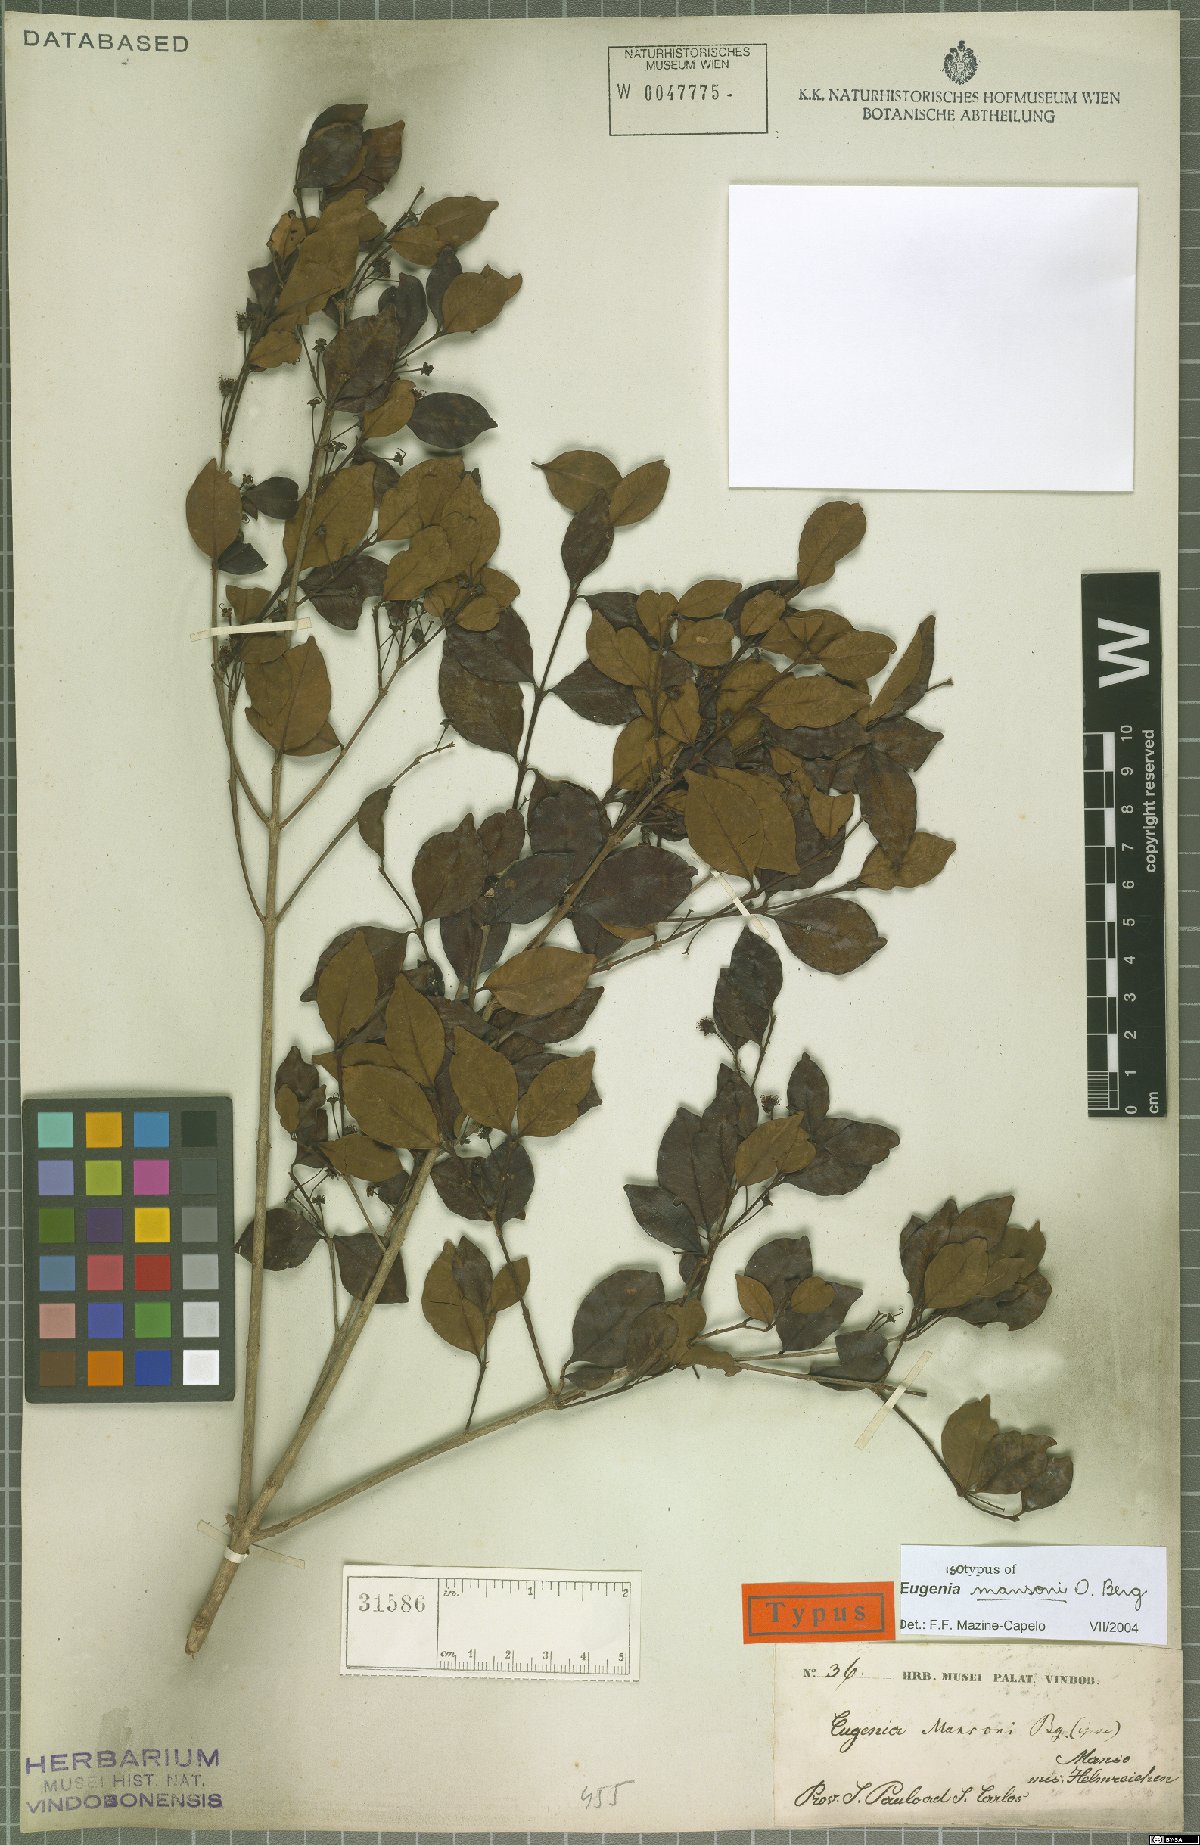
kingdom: Plantae
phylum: Tracheophyta
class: Magnoliopsida
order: Myrtales
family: Myrtaceae
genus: Eugenia
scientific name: Eugenia mansoi
